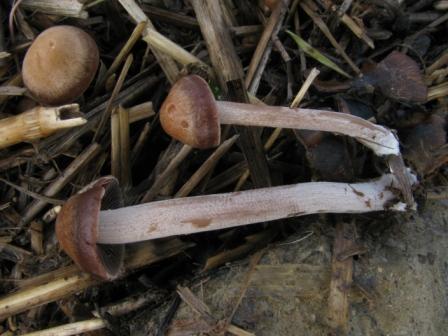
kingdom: Fungi
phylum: Basidiomycota
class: Agaricomycetes
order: Agaricales
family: Bolbitiaceae
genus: Panaeolus
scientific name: Panaeolus cinctulus
